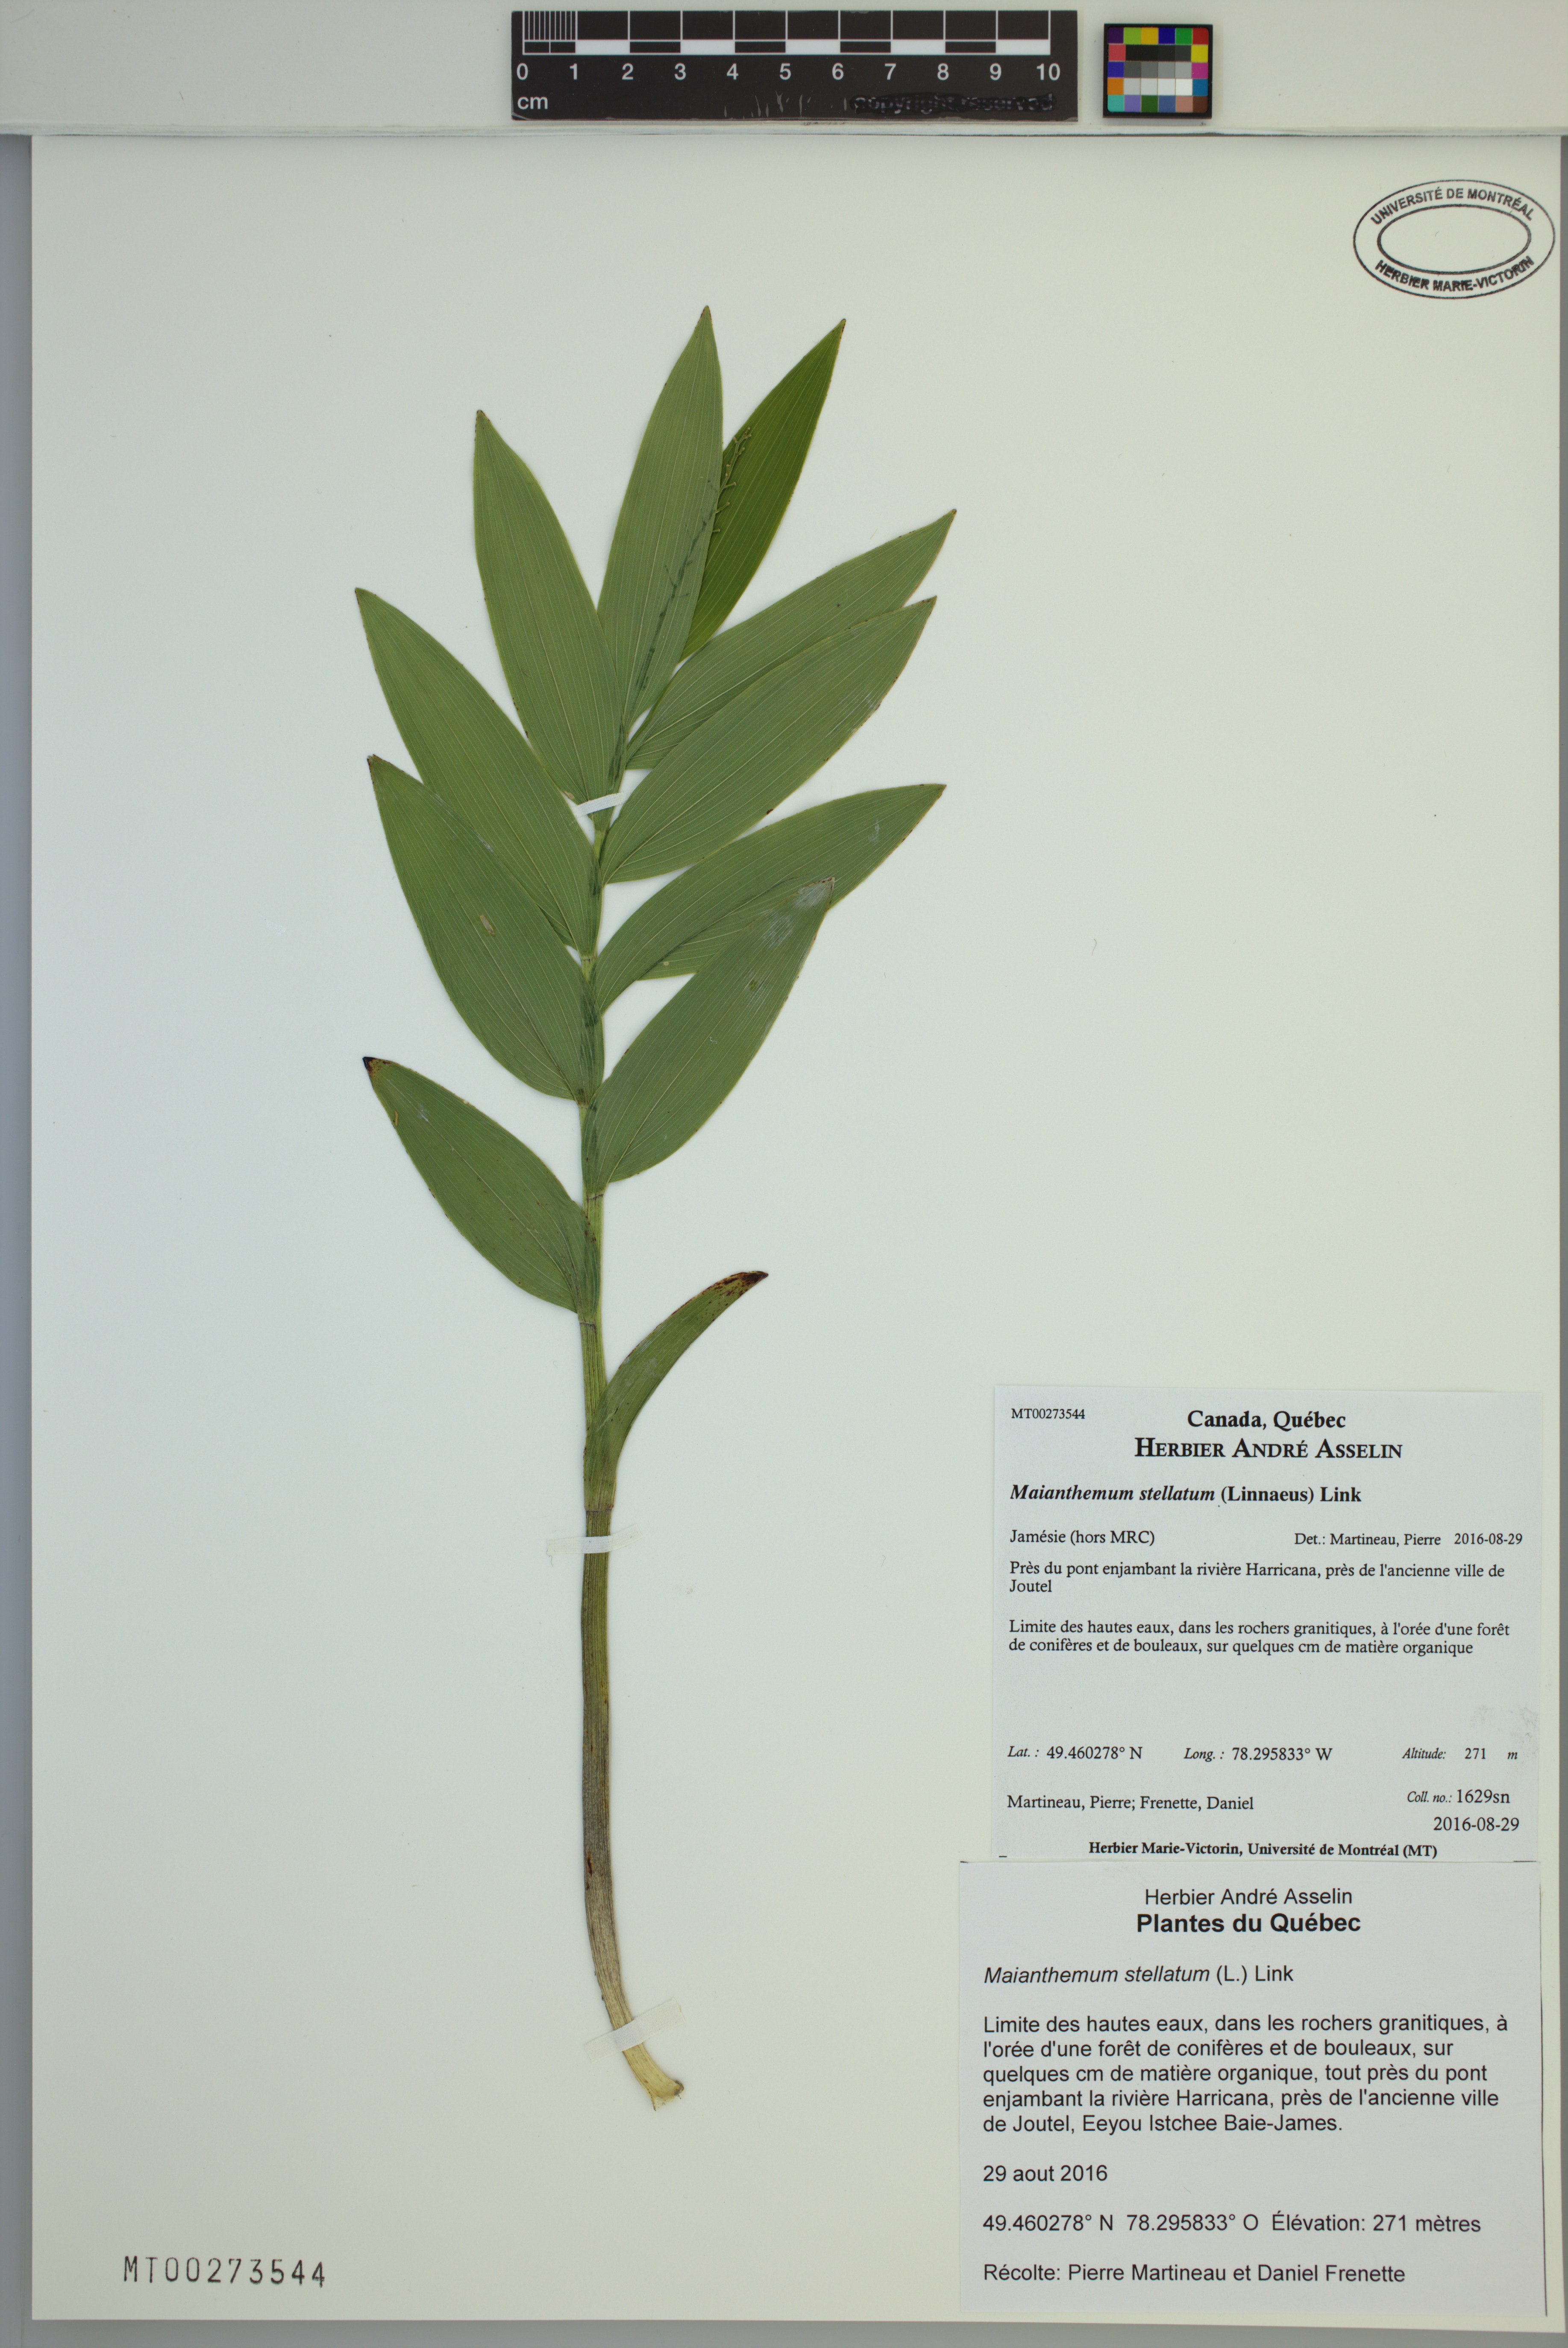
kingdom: Plantae
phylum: Tracheophyta
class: Liliopsida
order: Asparagales
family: Asparagaceae
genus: Maianthemum
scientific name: Maianthemum stellatum
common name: Little false solomon's seal
